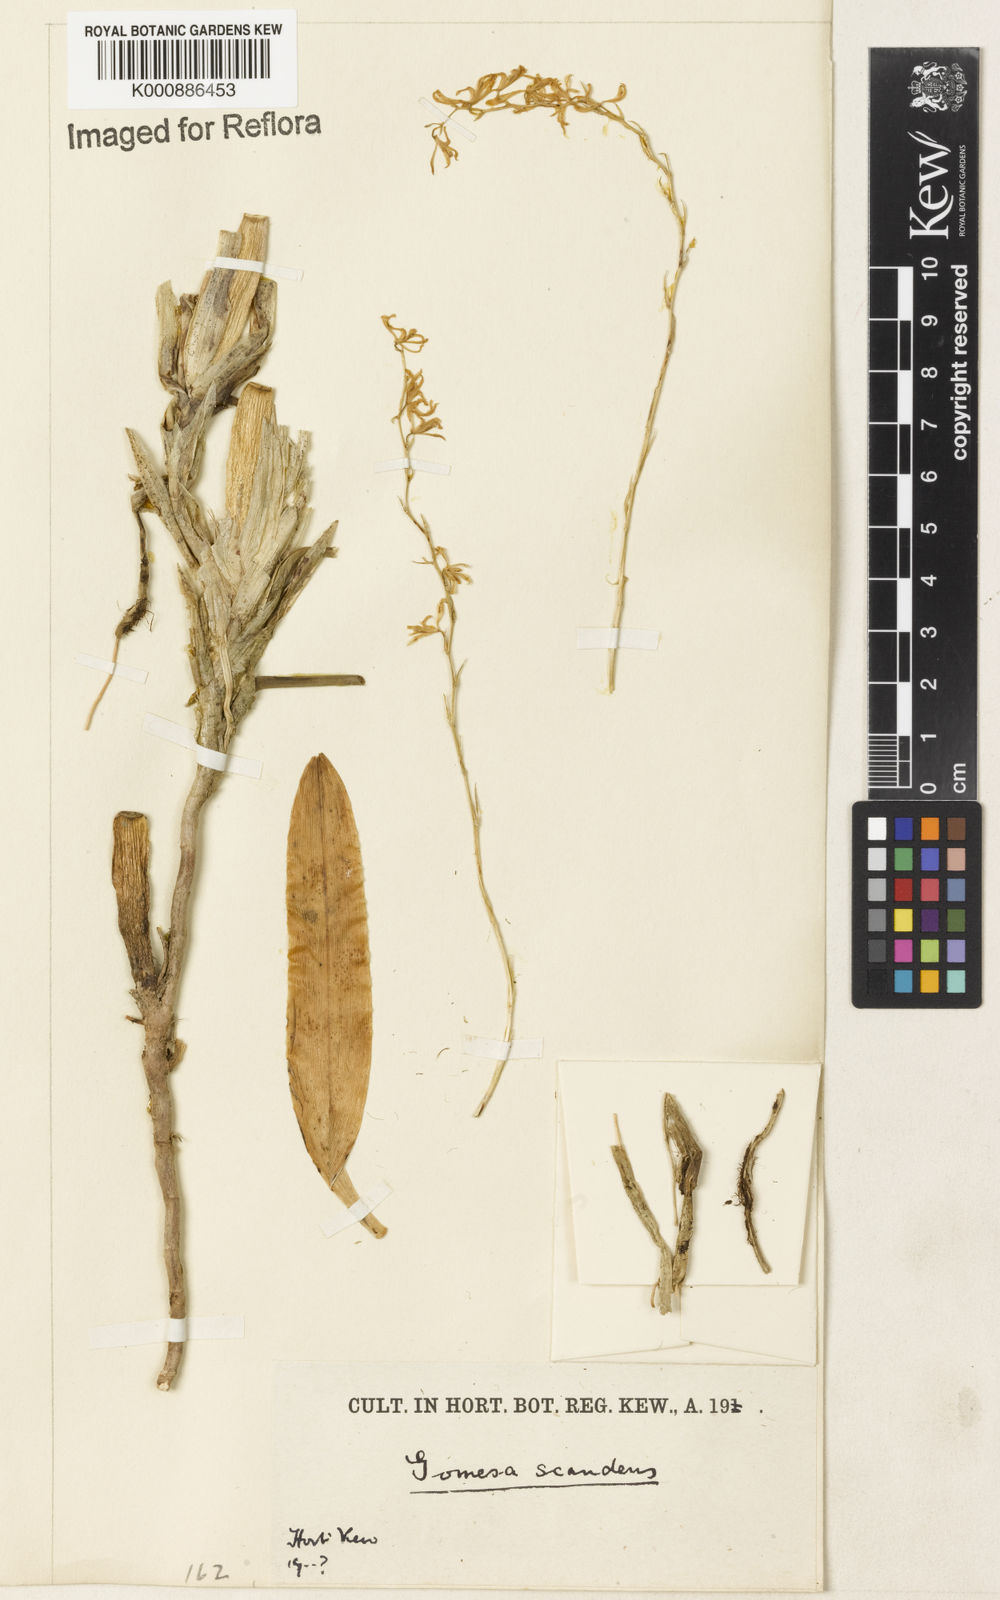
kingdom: Plantae
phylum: Tracheophyta
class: Liliopsida
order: Asparagales
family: Orchidaceae
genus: Gomesa
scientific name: Gomesa glaziovii
